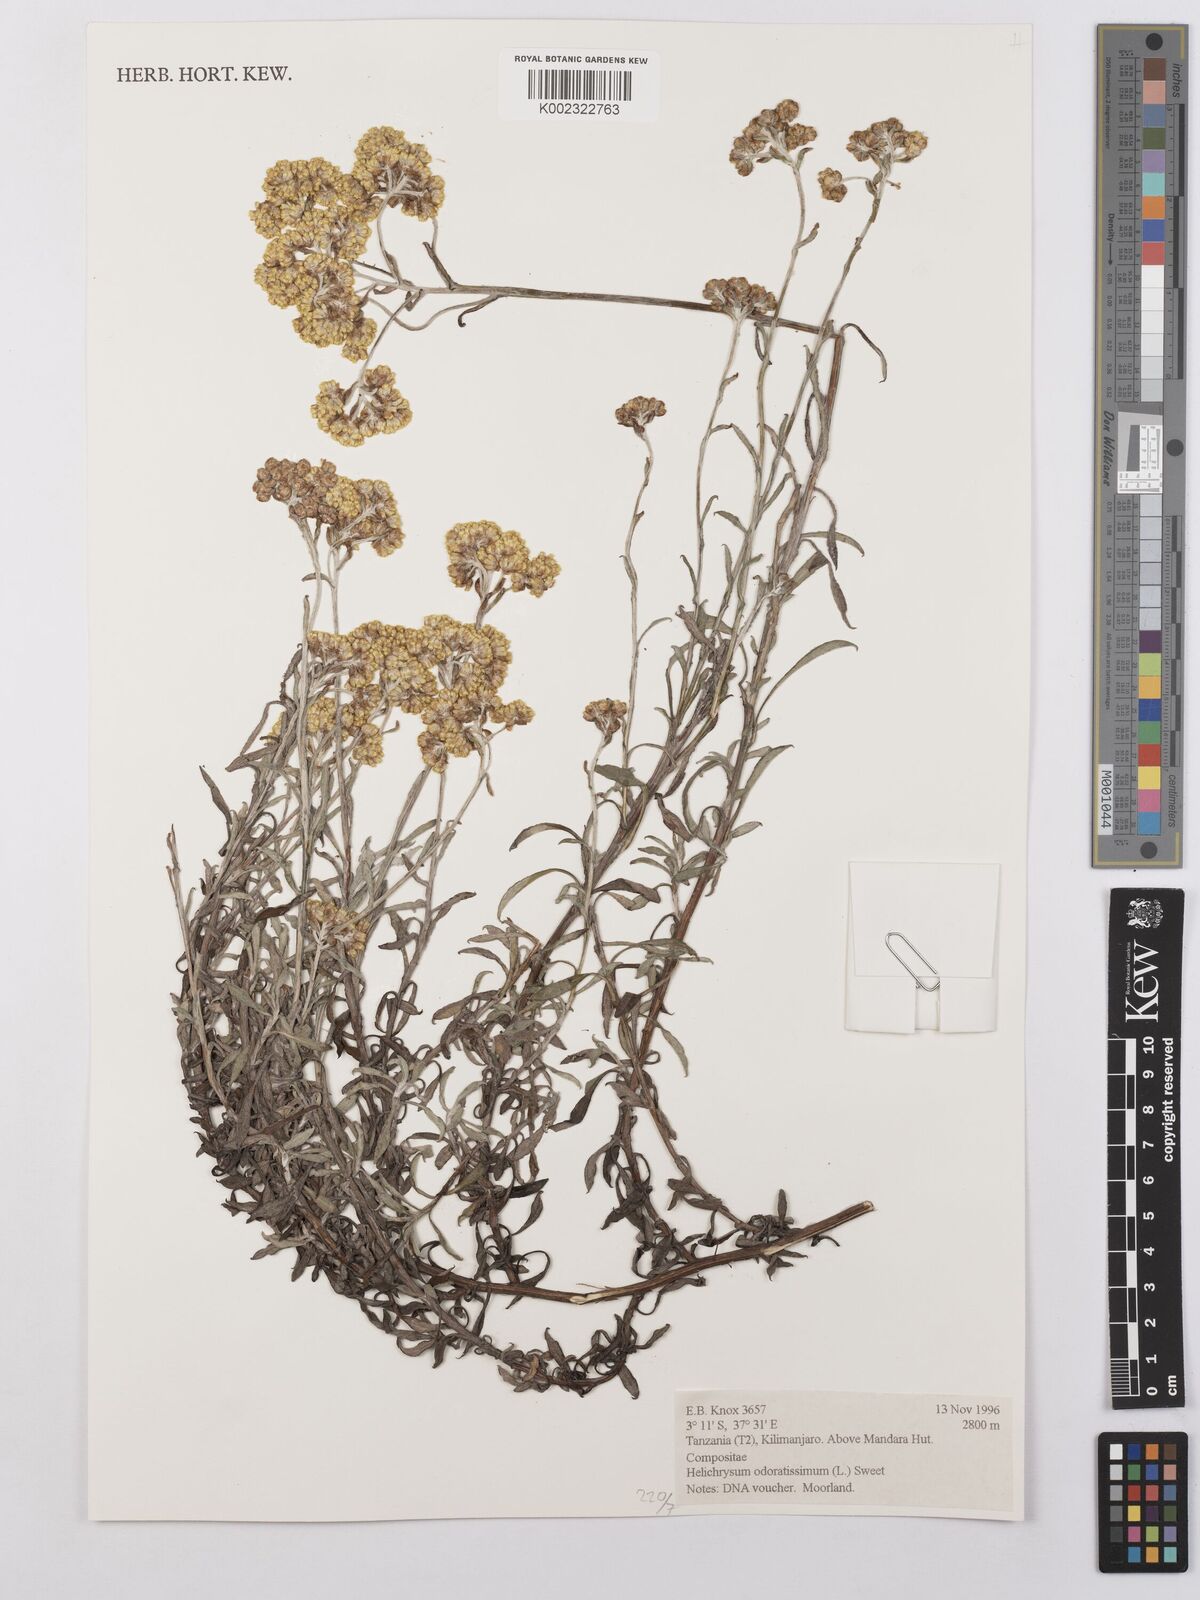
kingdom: Plantae
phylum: Tracheophyta
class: Magnoliopsida
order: Asterales
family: Asteraceae
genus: Helichrysum
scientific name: Helichrysum odoratissimum
